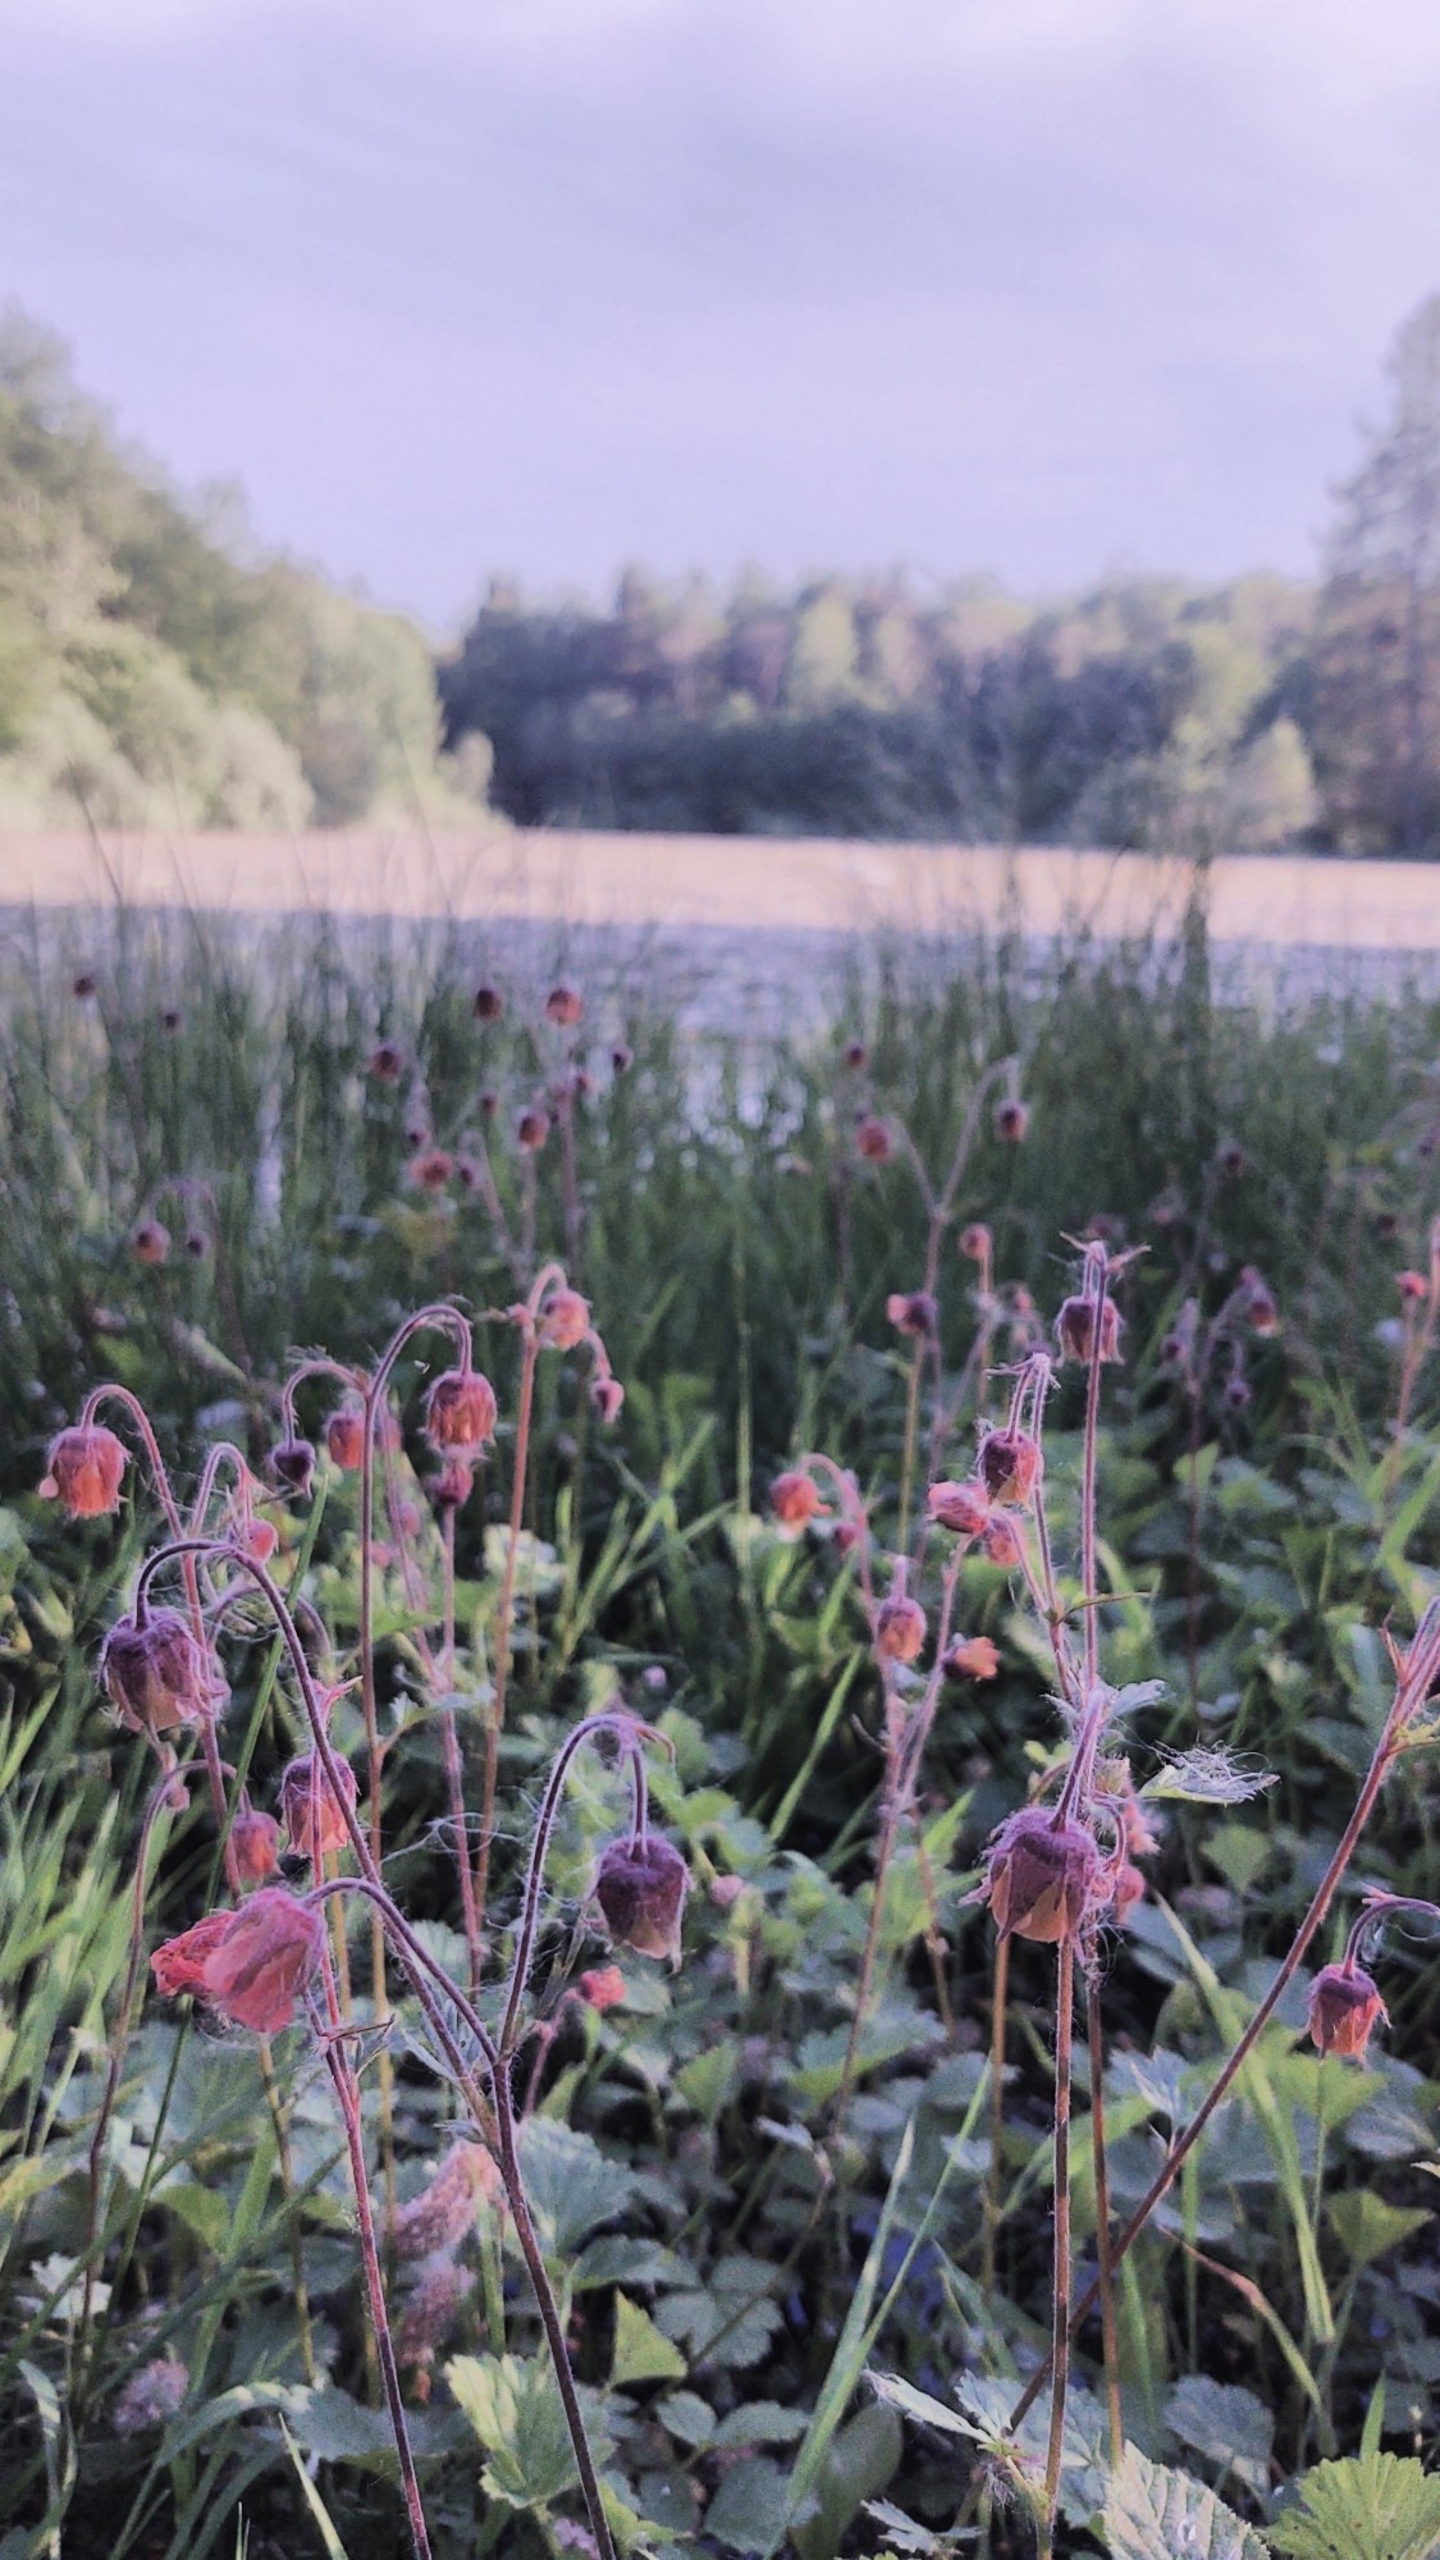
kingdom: Plantae
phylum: Tracheophyta
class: Magnoliopsida
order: Rosales
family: Rosaceae
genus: Geum
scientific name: Geum rivale
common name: Eng-nellikerod
